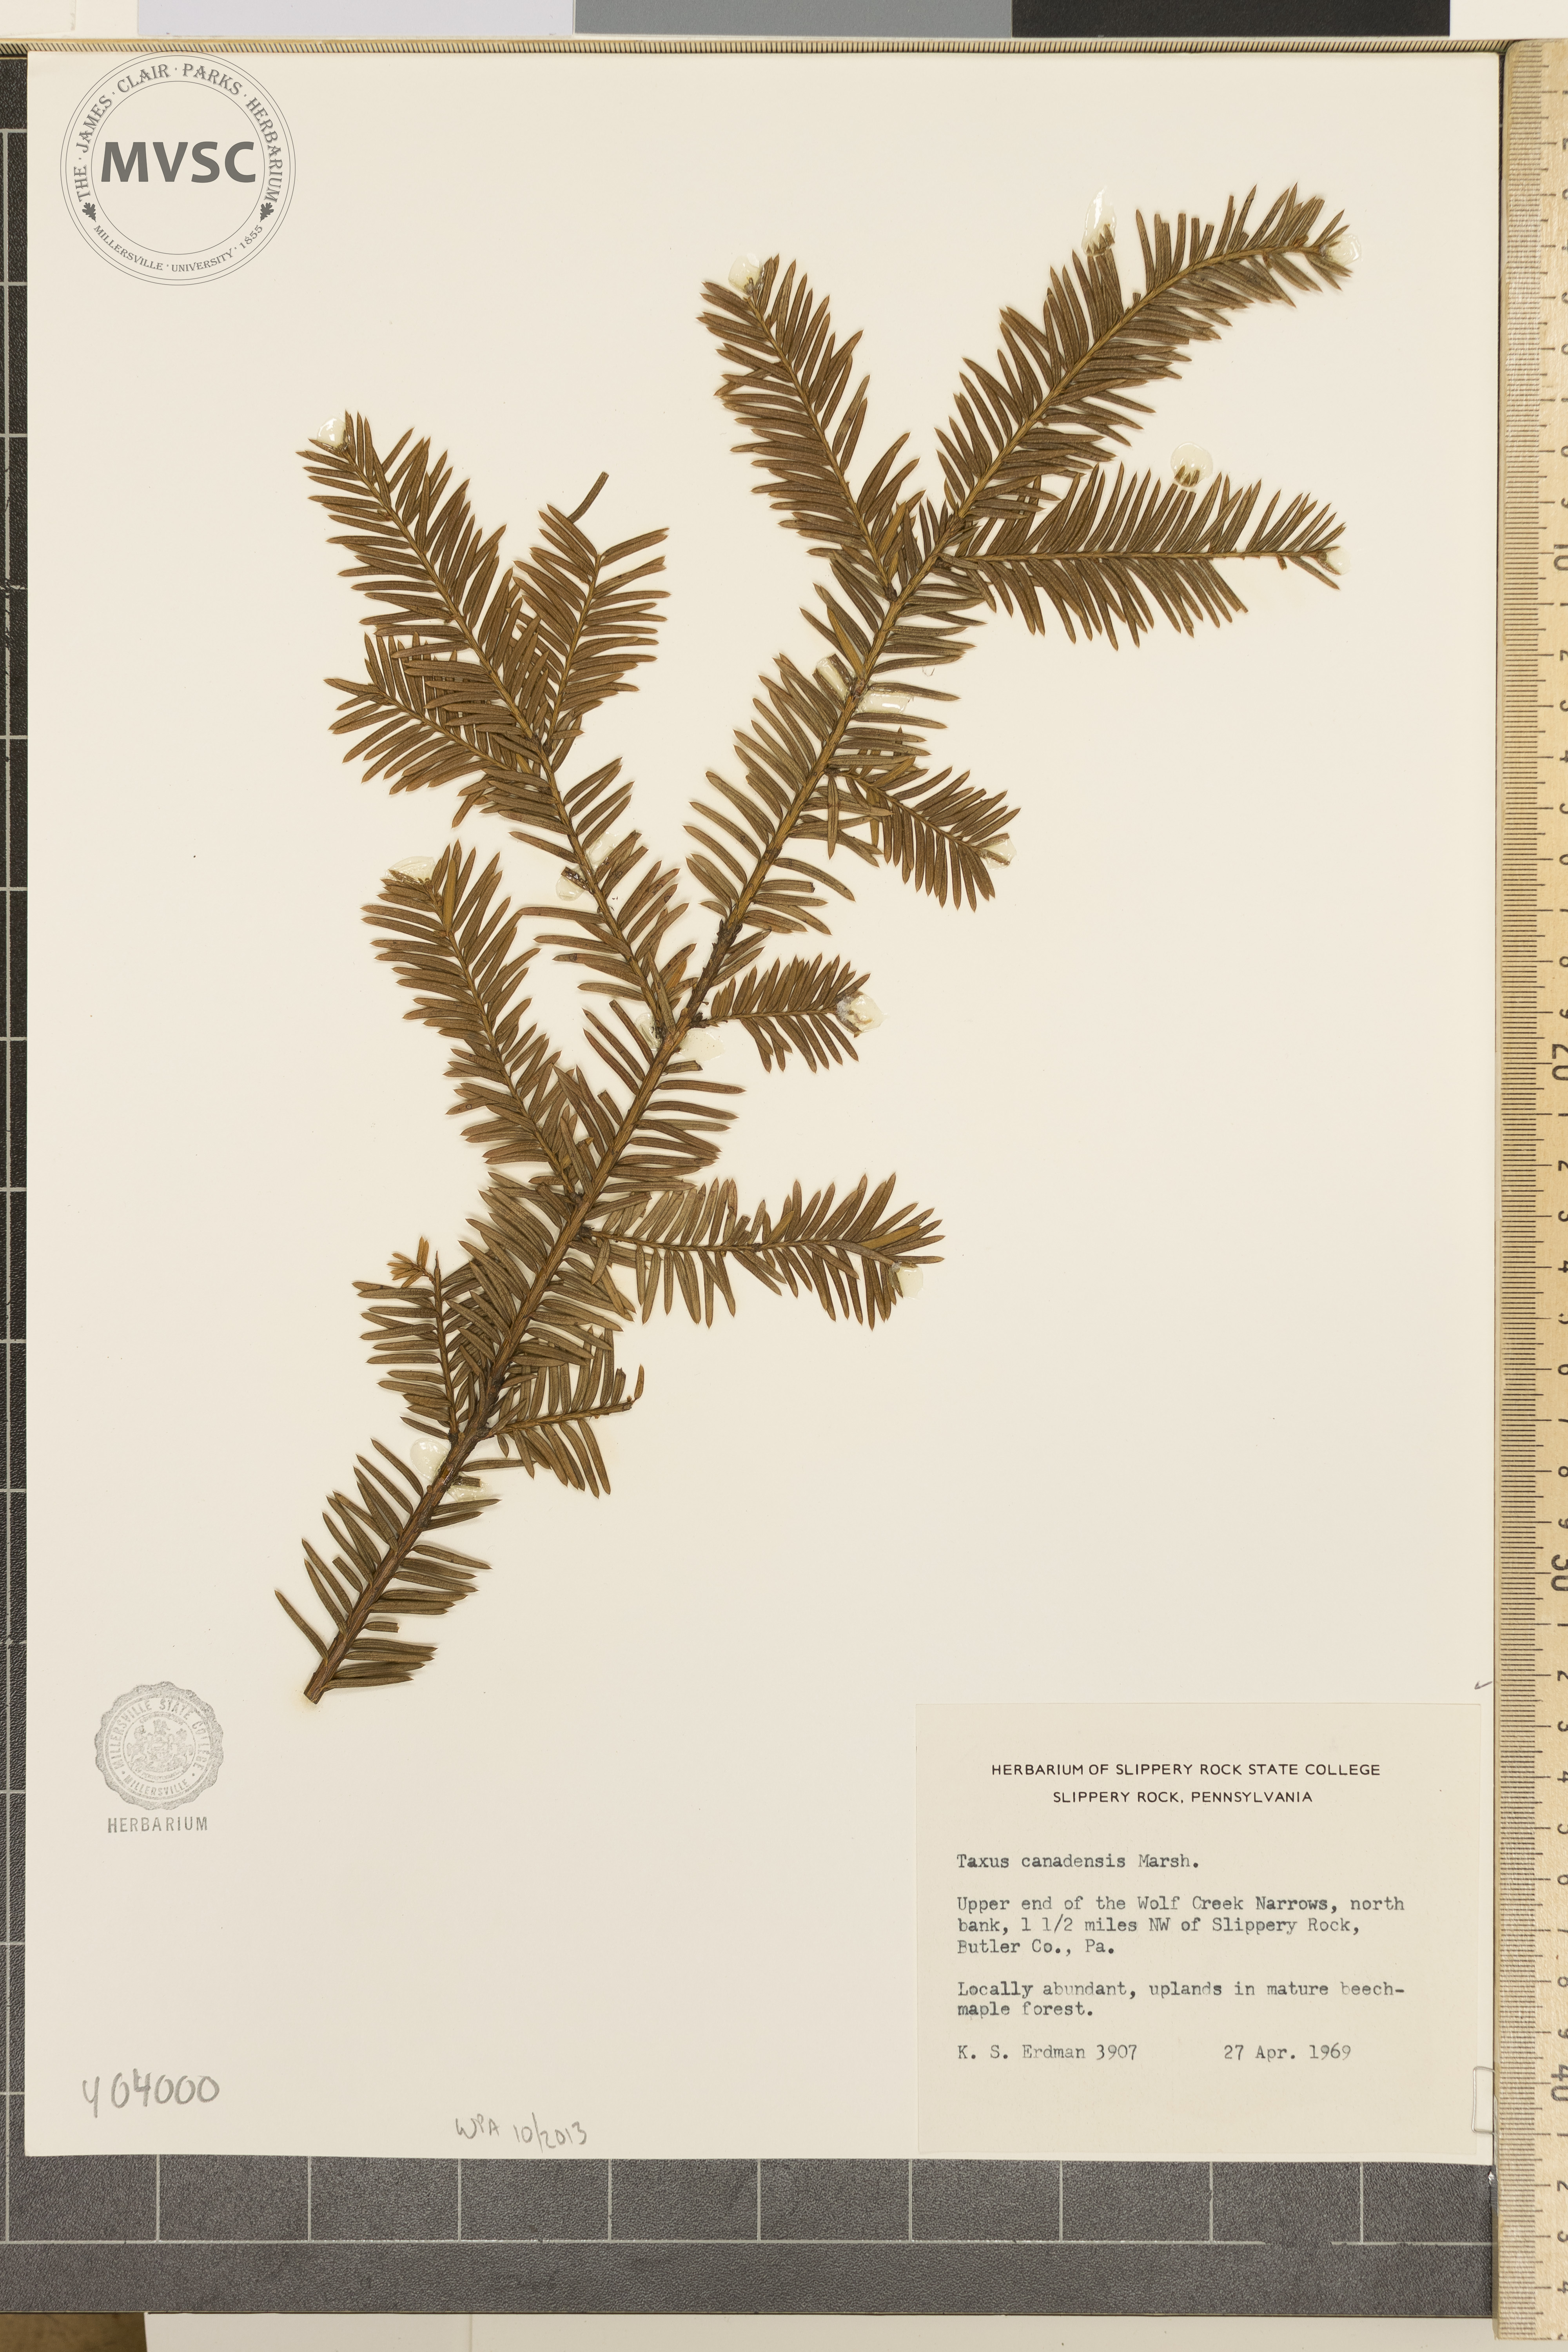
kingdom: Plantae
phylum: Tracheophyta
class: Pinopsida
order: Pinales
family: Taxaceae
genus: Taxus
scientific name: Taxus canadensis
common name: Canada Yew
